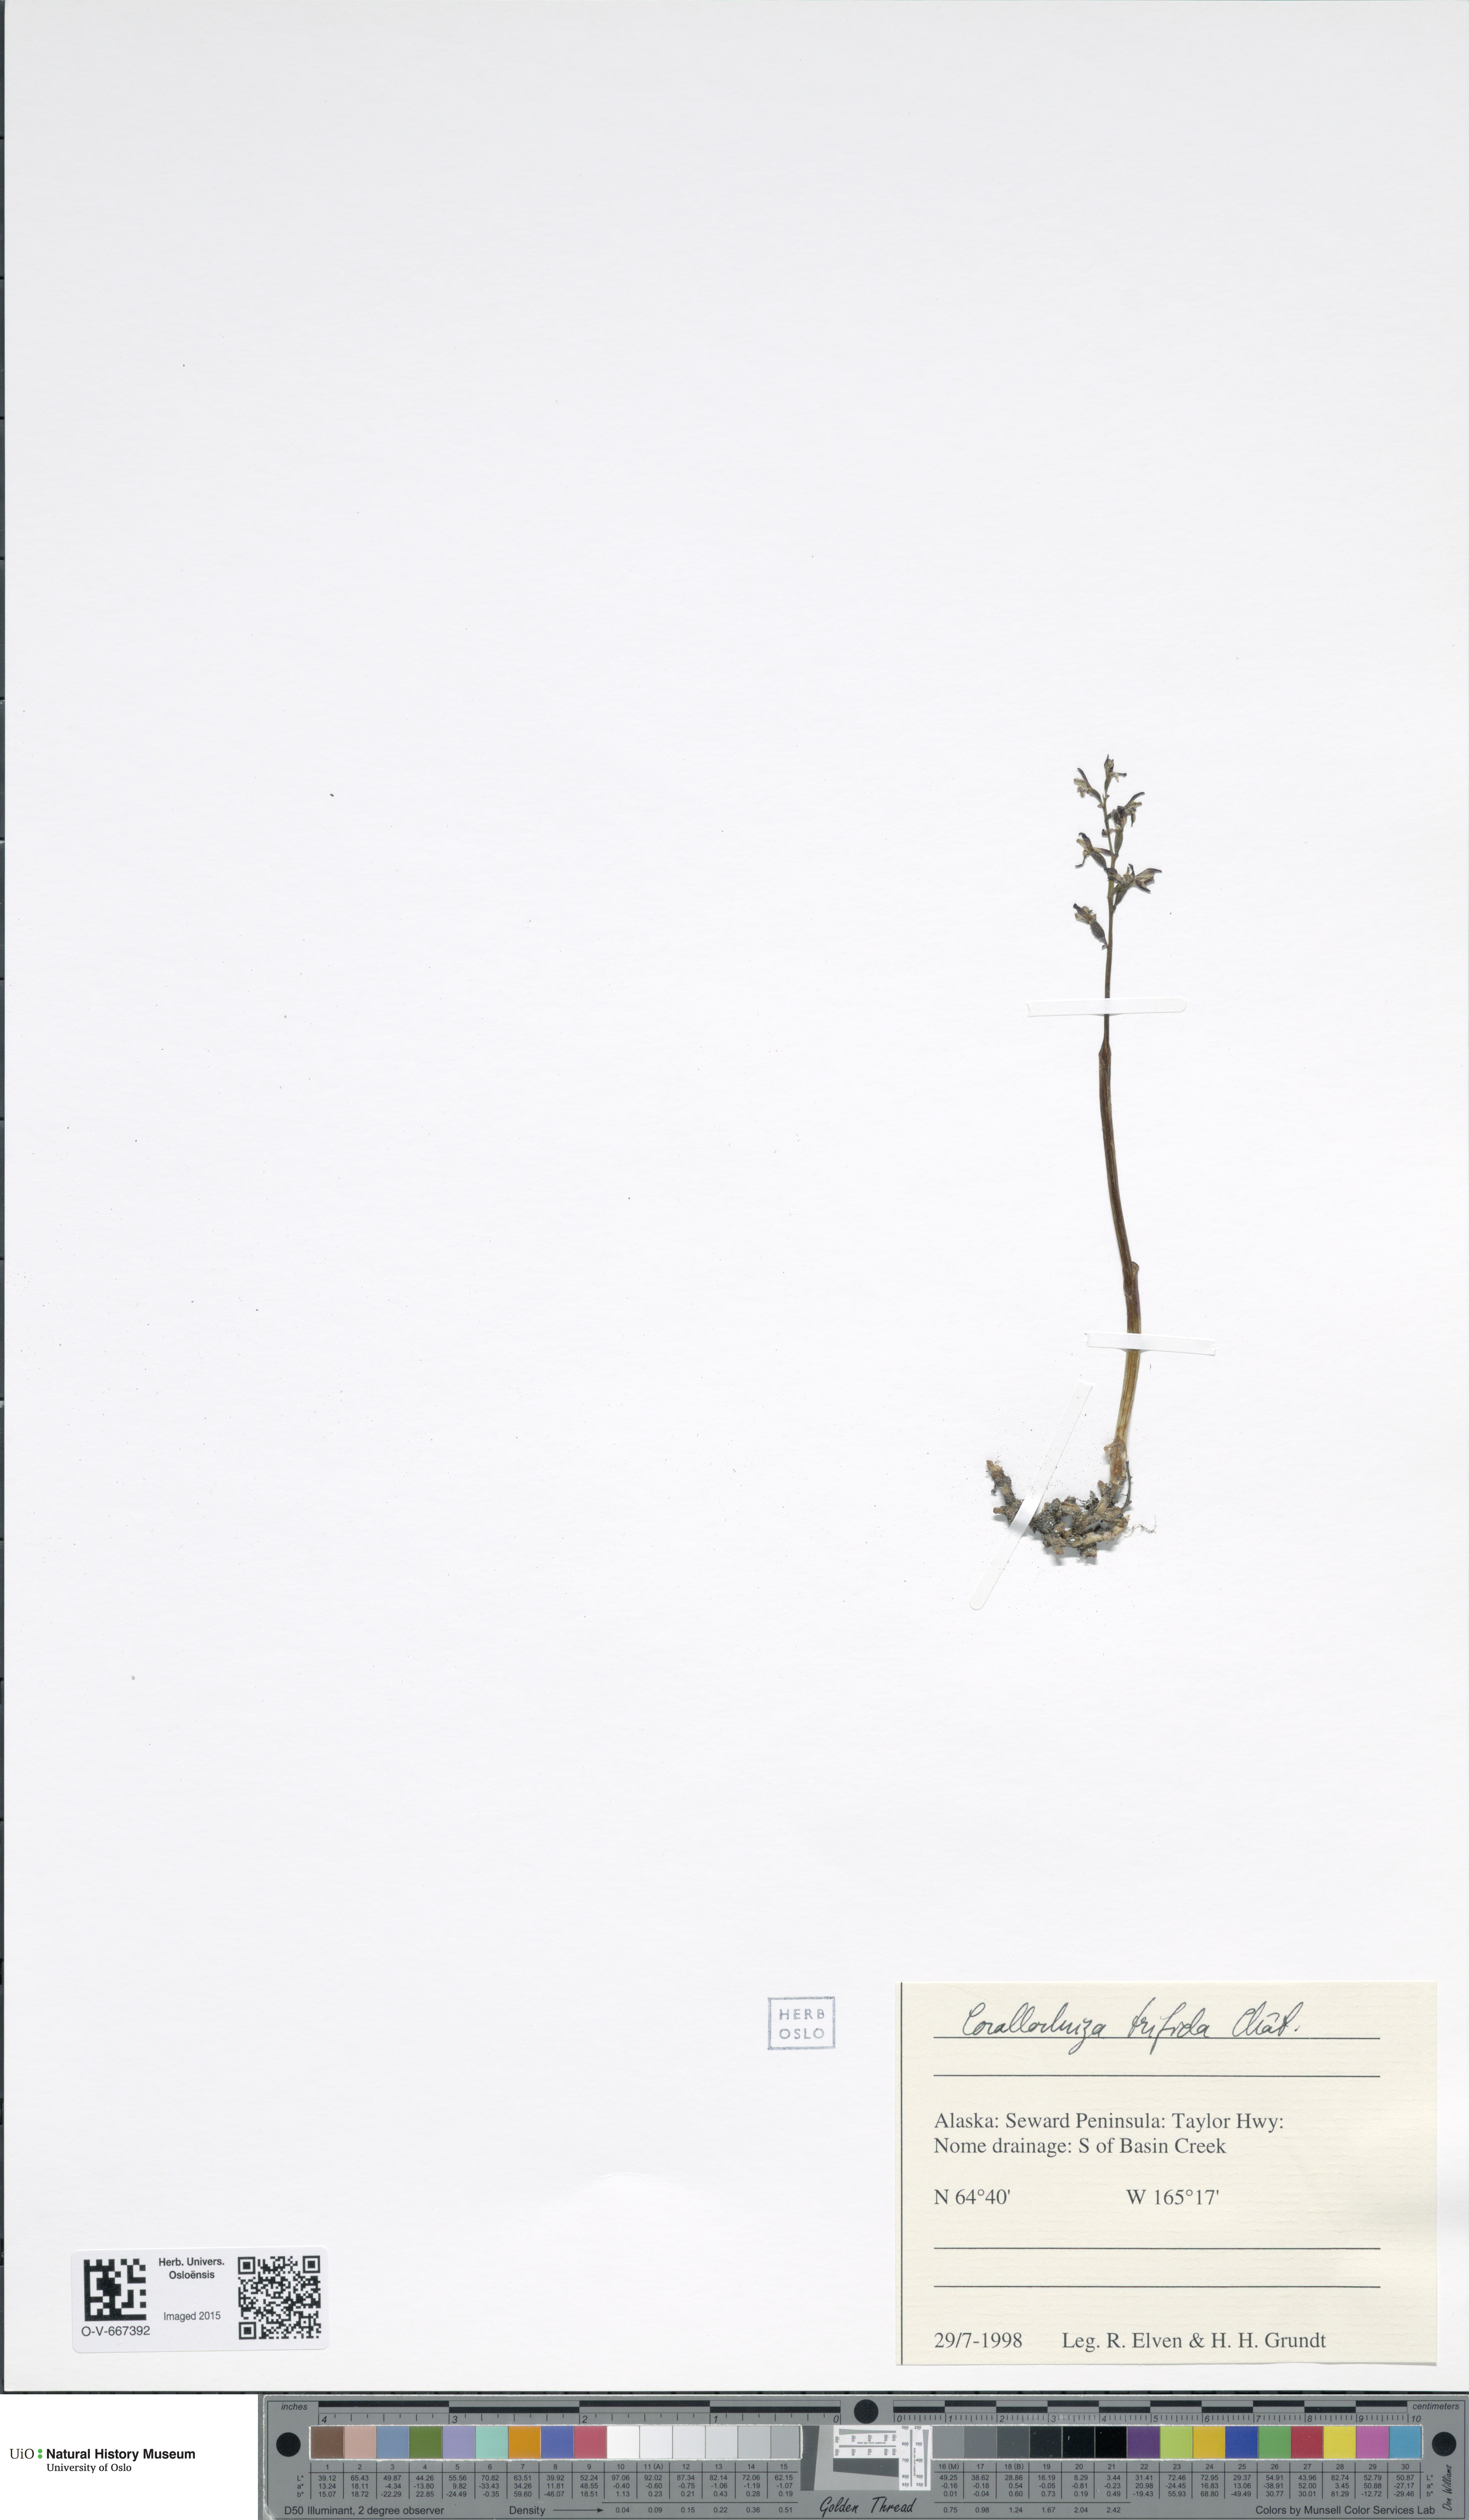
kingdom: Plantae
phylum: Tracheophyta
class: Liliopsida
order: Asparagales
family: Orchidaceae
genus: Corallorhiza
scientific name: Corallorhiza trifida
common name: Yellow coralroot
